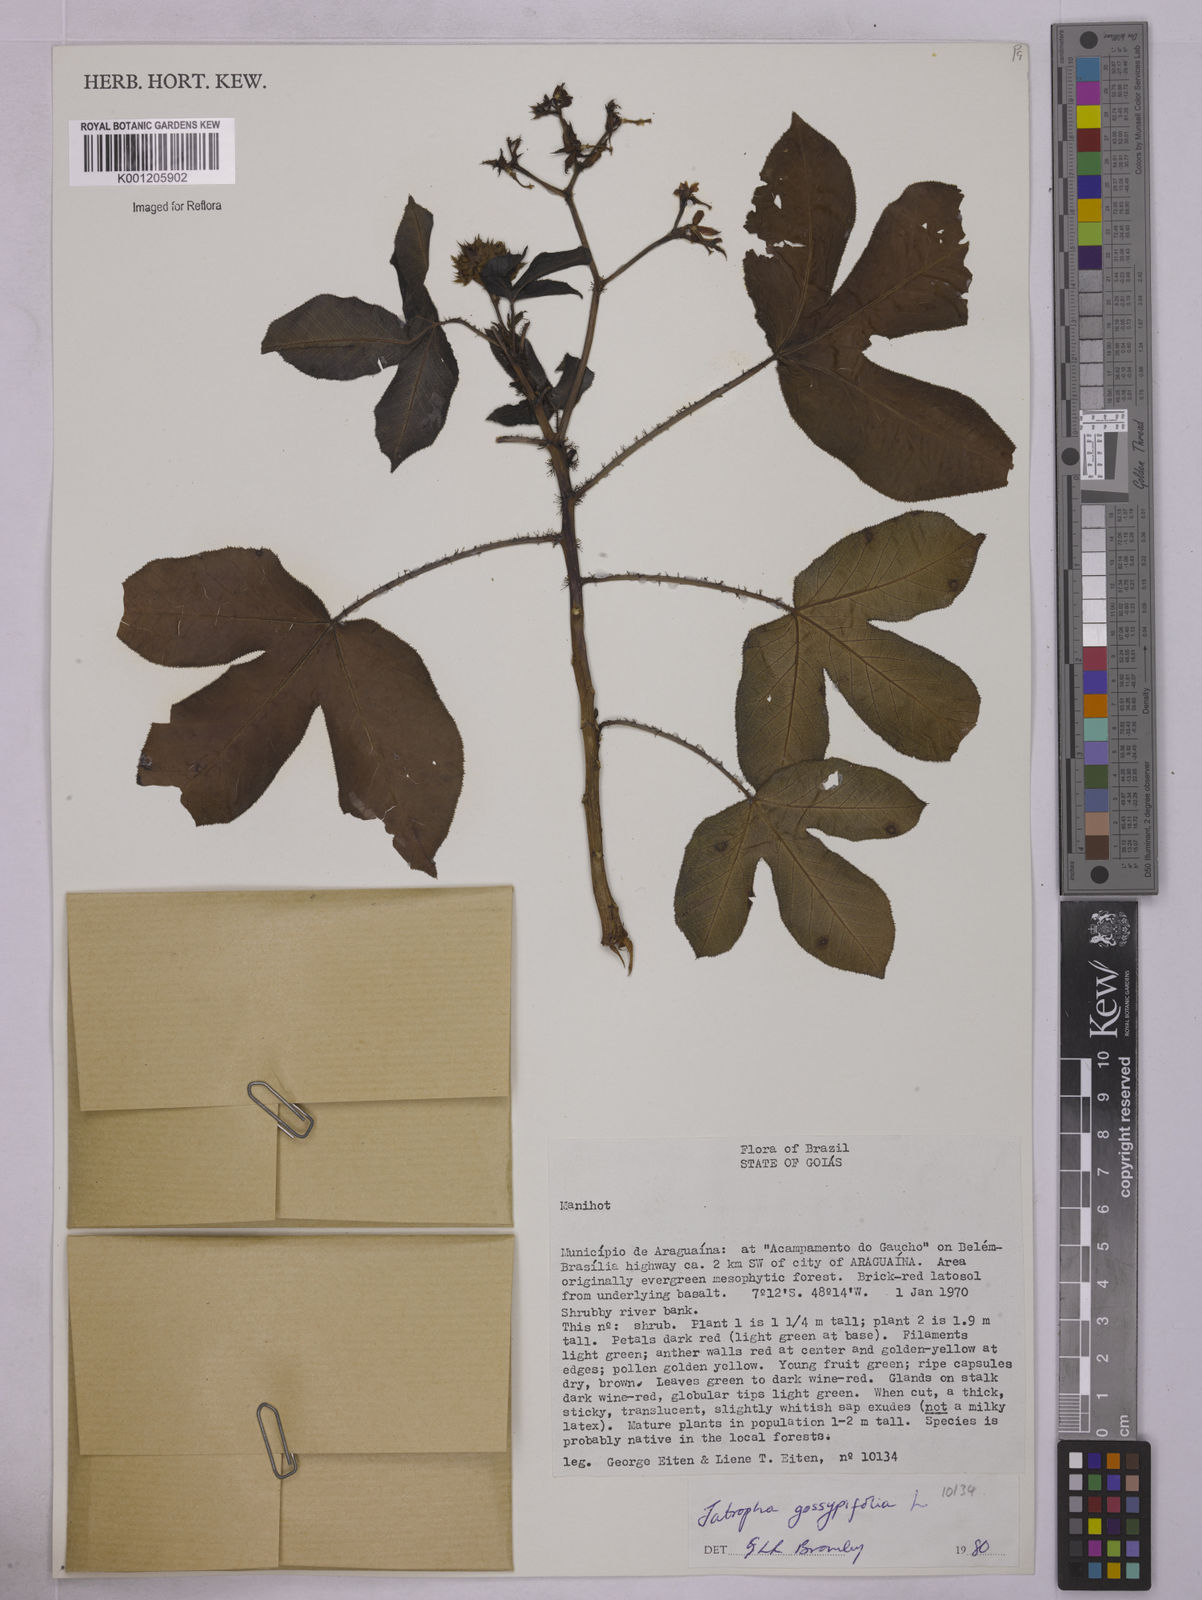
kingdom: Plantae
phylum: Tracheophyta
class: Magnoliopsida
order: Malpighiales
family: Euphorbiaceae
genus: Jatropha
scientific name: Jatropha gossypiifolia
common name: Bellyache bush
